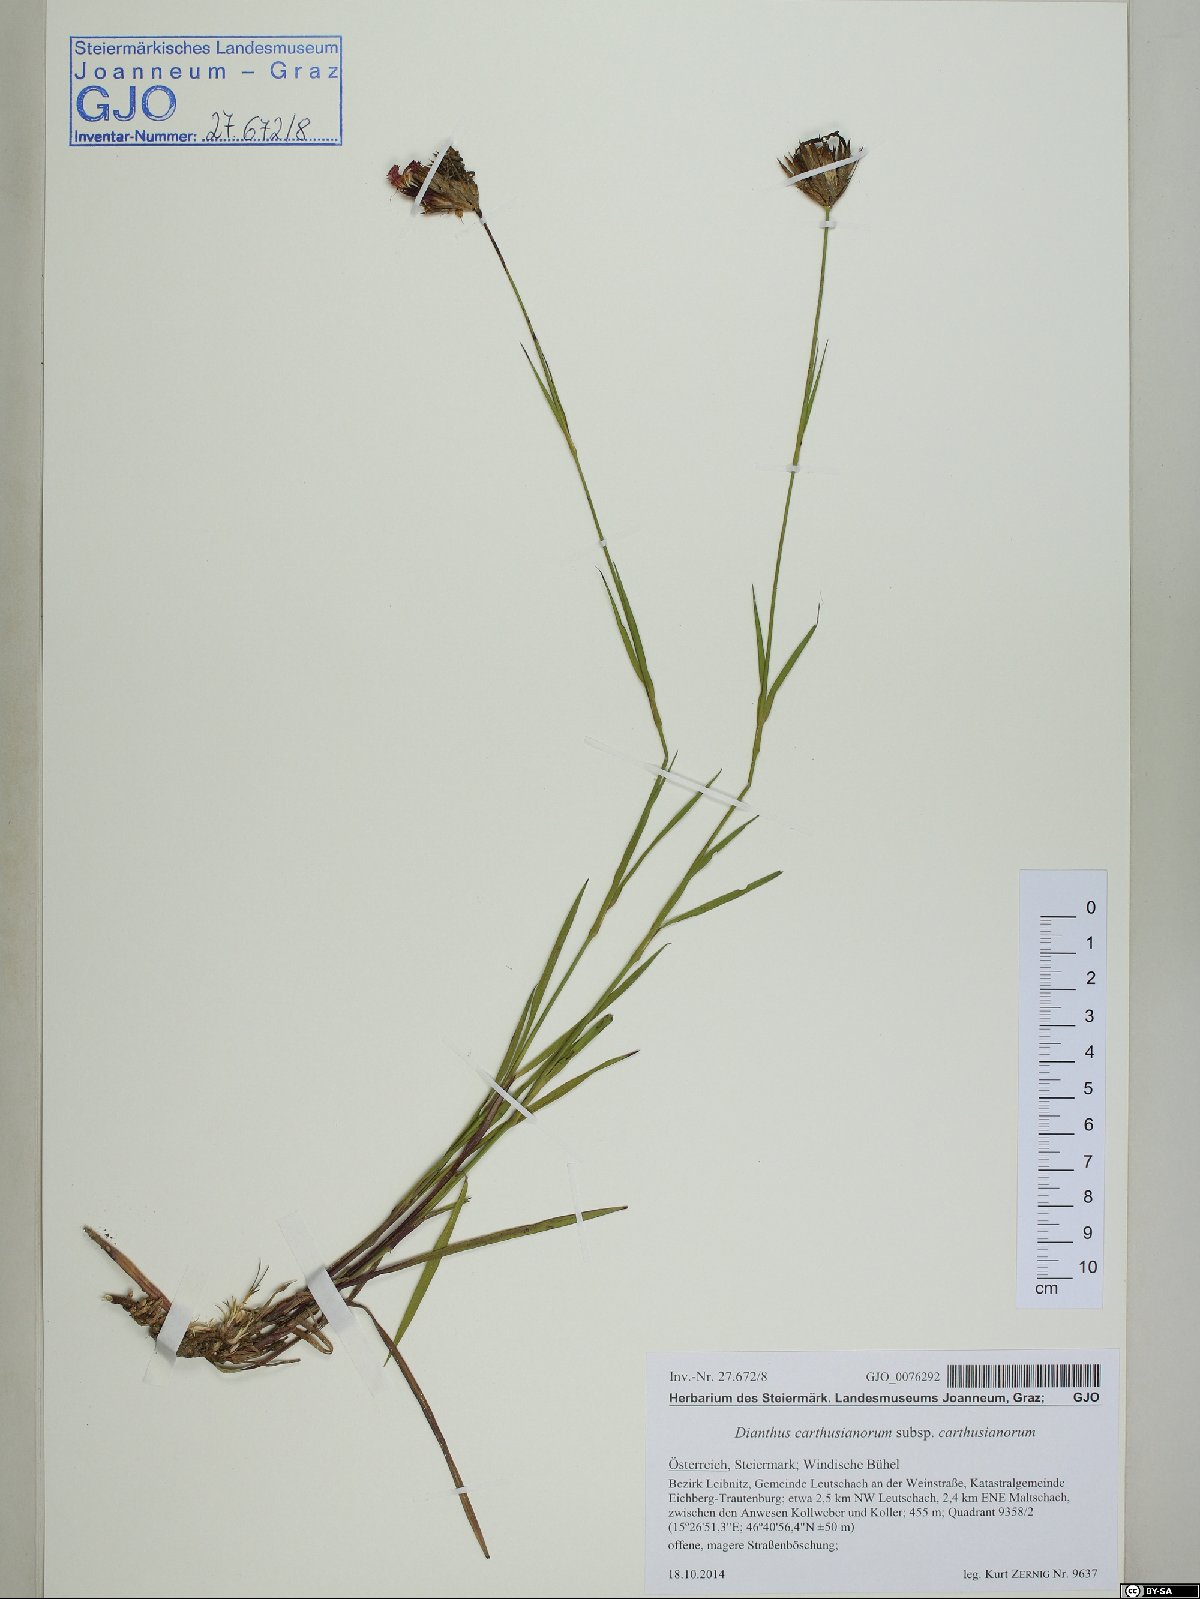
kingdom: Plantae
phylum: Tracheophyta
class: Magnoliopsida
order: Caryophyllales
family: Caryophyllaceae
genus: Dianthus
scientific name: Dianthus carthusianorum
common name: Carthusian pink
